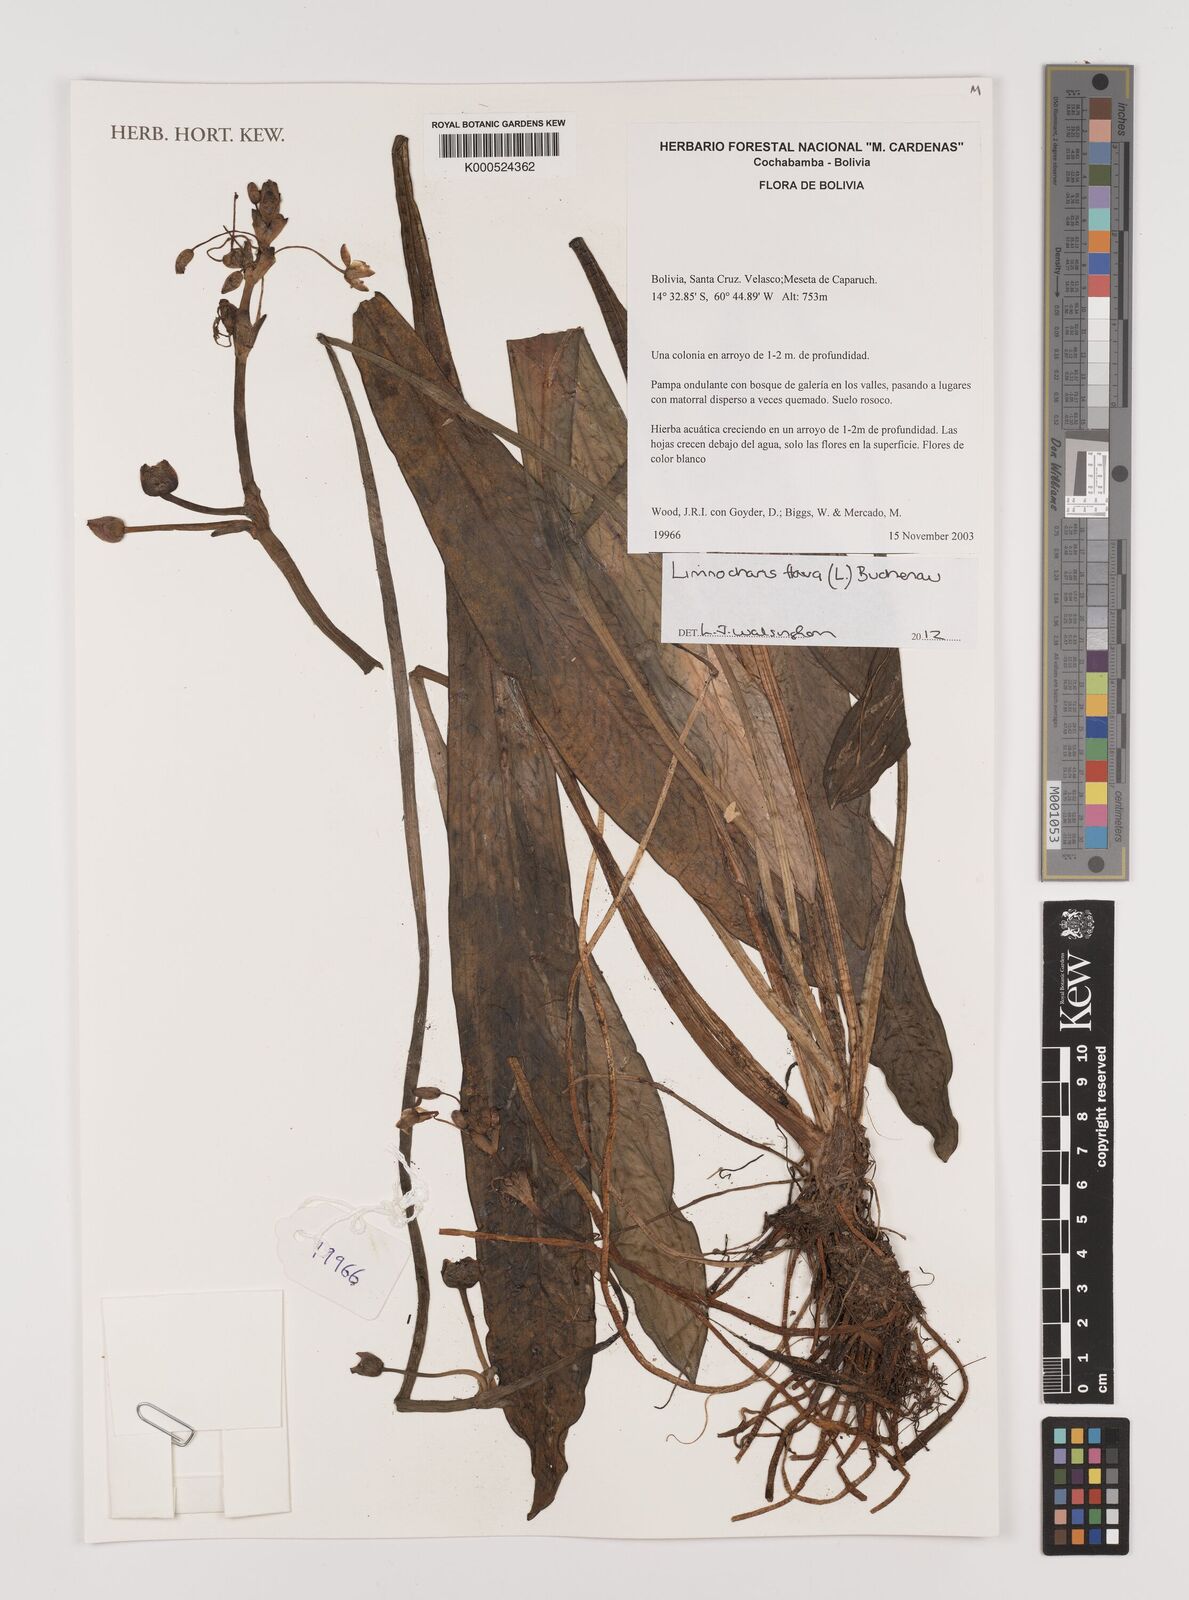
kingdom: Plantae
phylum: Tracheophyta
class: Liliopsida
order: Alismatales
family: Alismataceae
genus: Limnocharis
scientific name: Limnocharis flava
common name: Sawah-flower-rush
